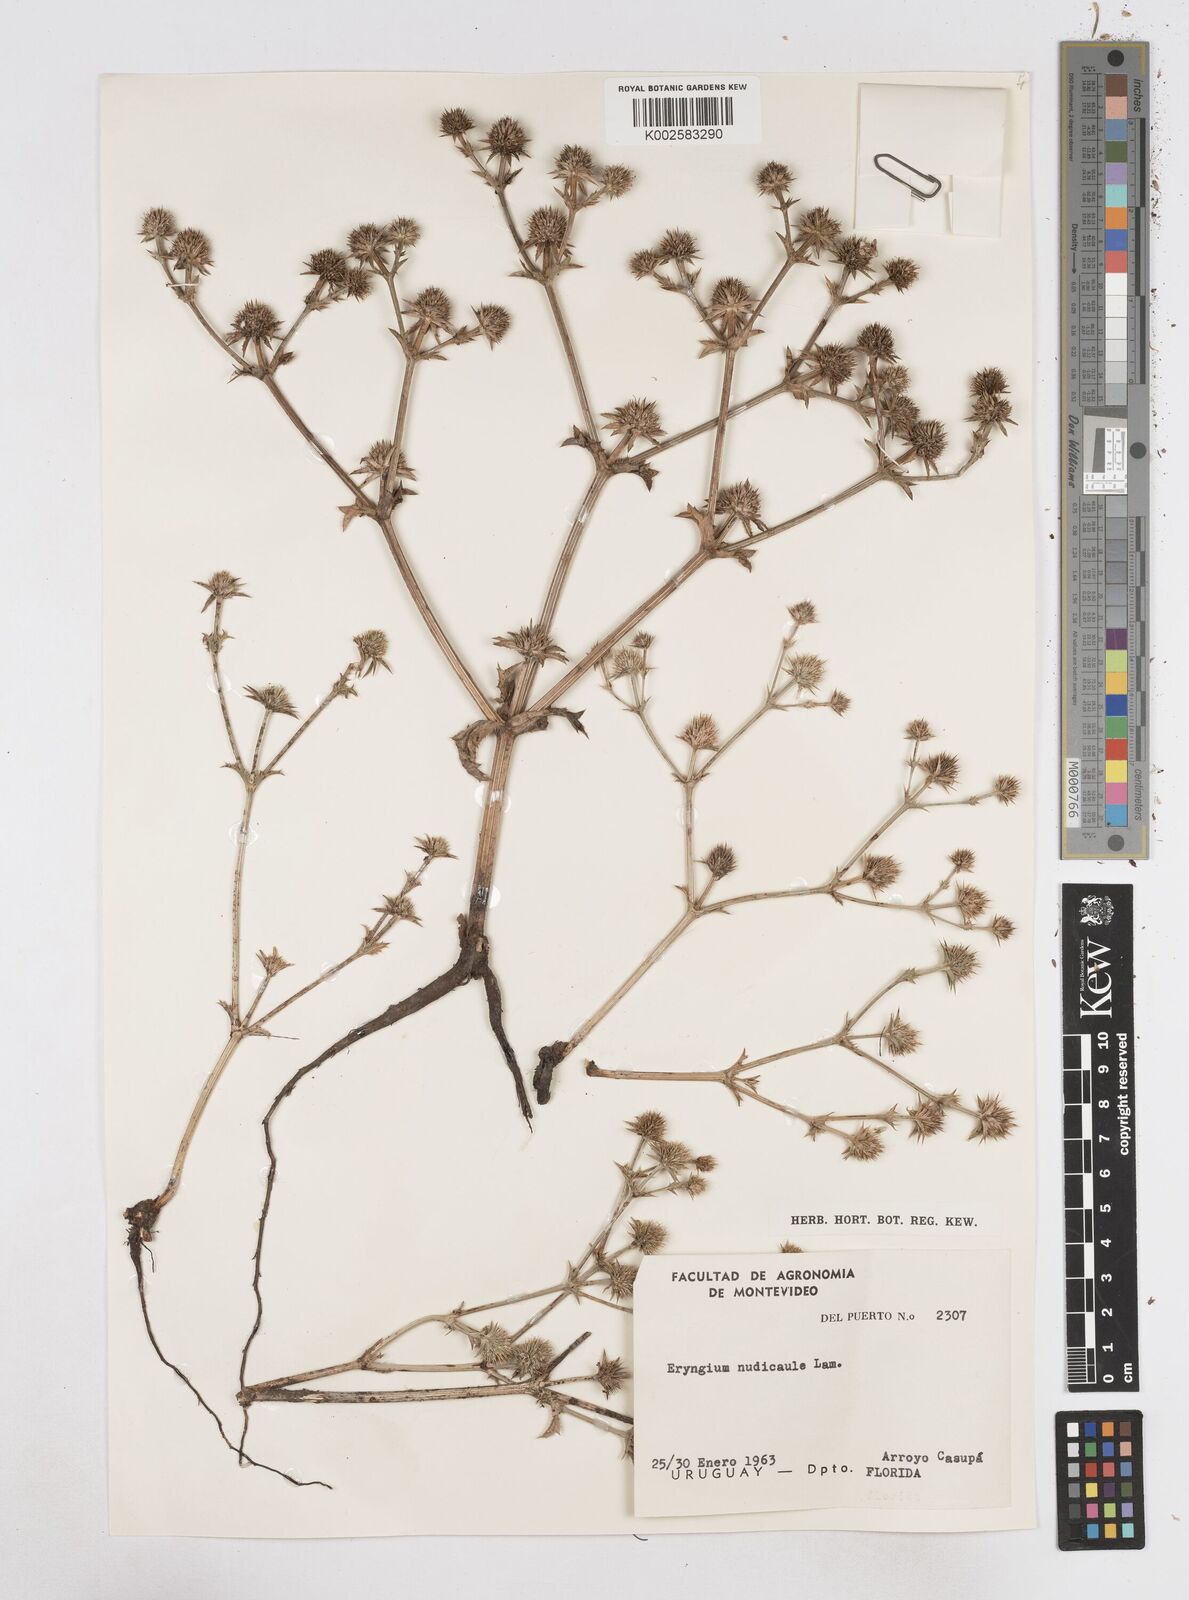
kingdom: Plantae
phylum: Tracheophyta
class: Magnoliopsida
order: Apiales
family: Apiaceae
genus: Eryngium
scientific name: Eryngium nudicaule
